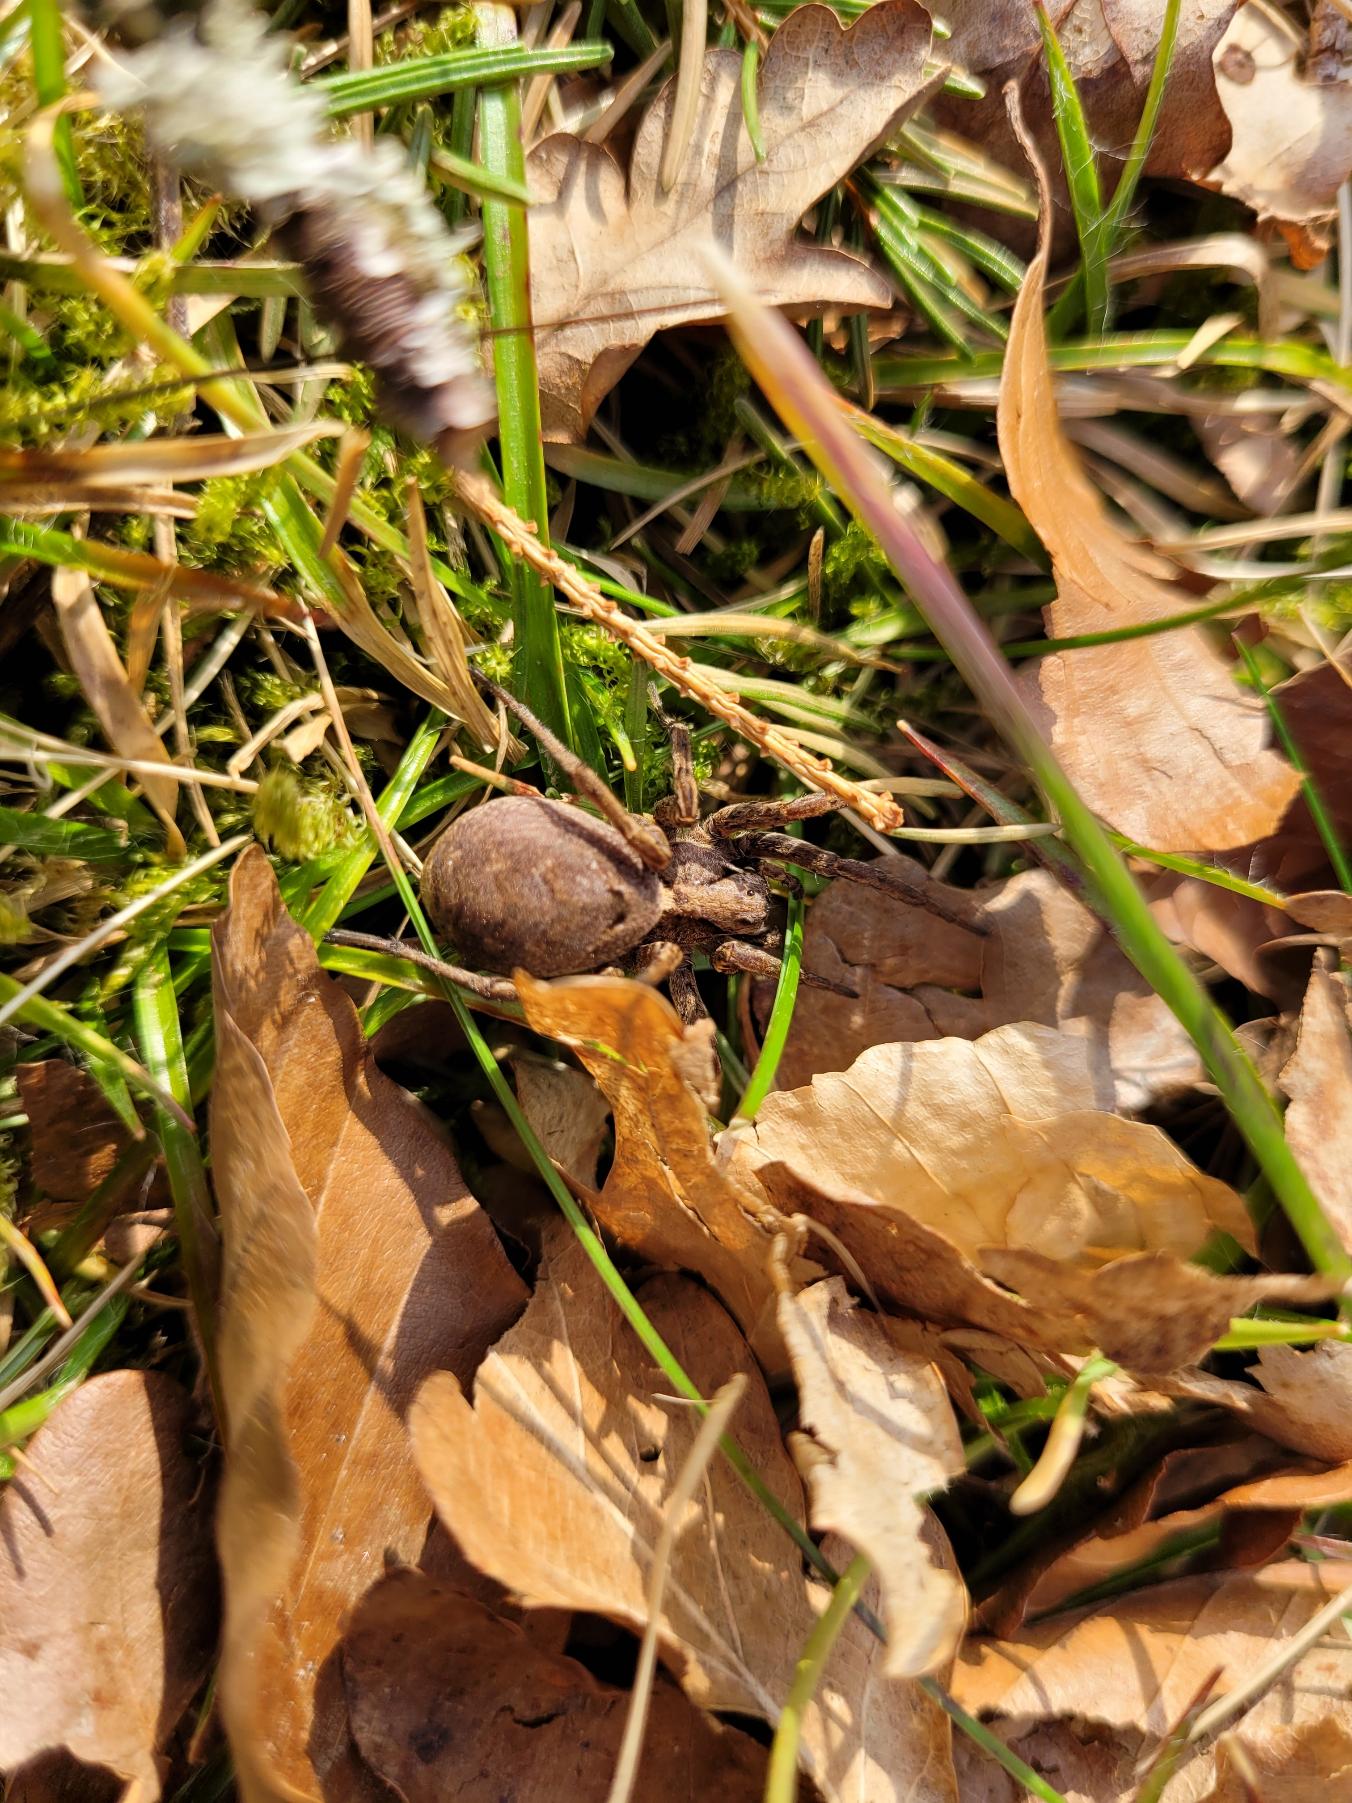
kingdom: Animalia
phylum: Arthropoda
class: Arachnida
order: Araneae
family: Lycosidae
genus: Alopecosa
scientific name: Alopecosa inquilina
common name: Stor kæmpejæger
